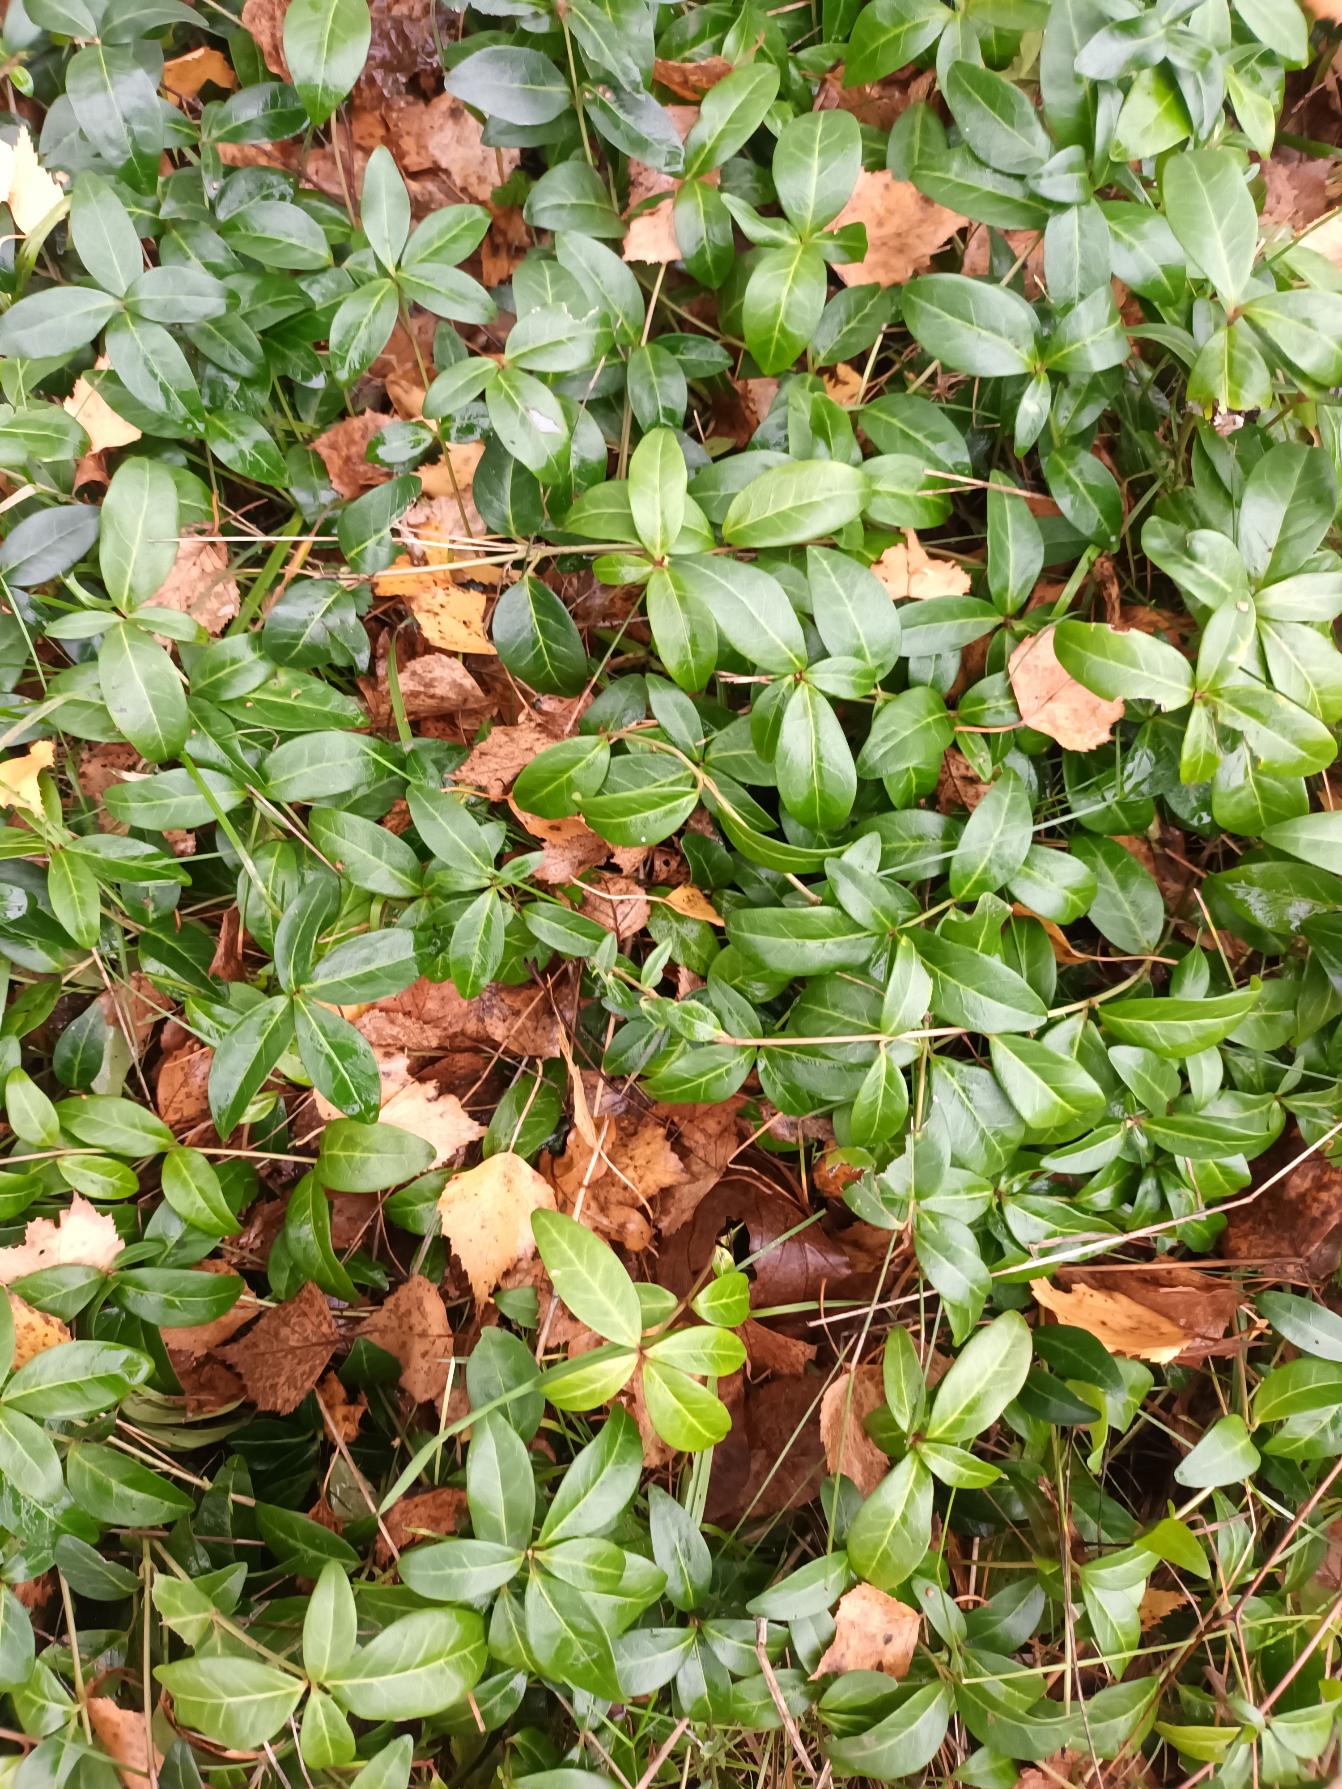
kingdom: Plantae
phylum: Tracheophyta
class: Magnoliopsida
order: Gentianales
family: Apocynaceae
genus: Vinca
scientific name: Vinca minor
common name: Liden singrøn
